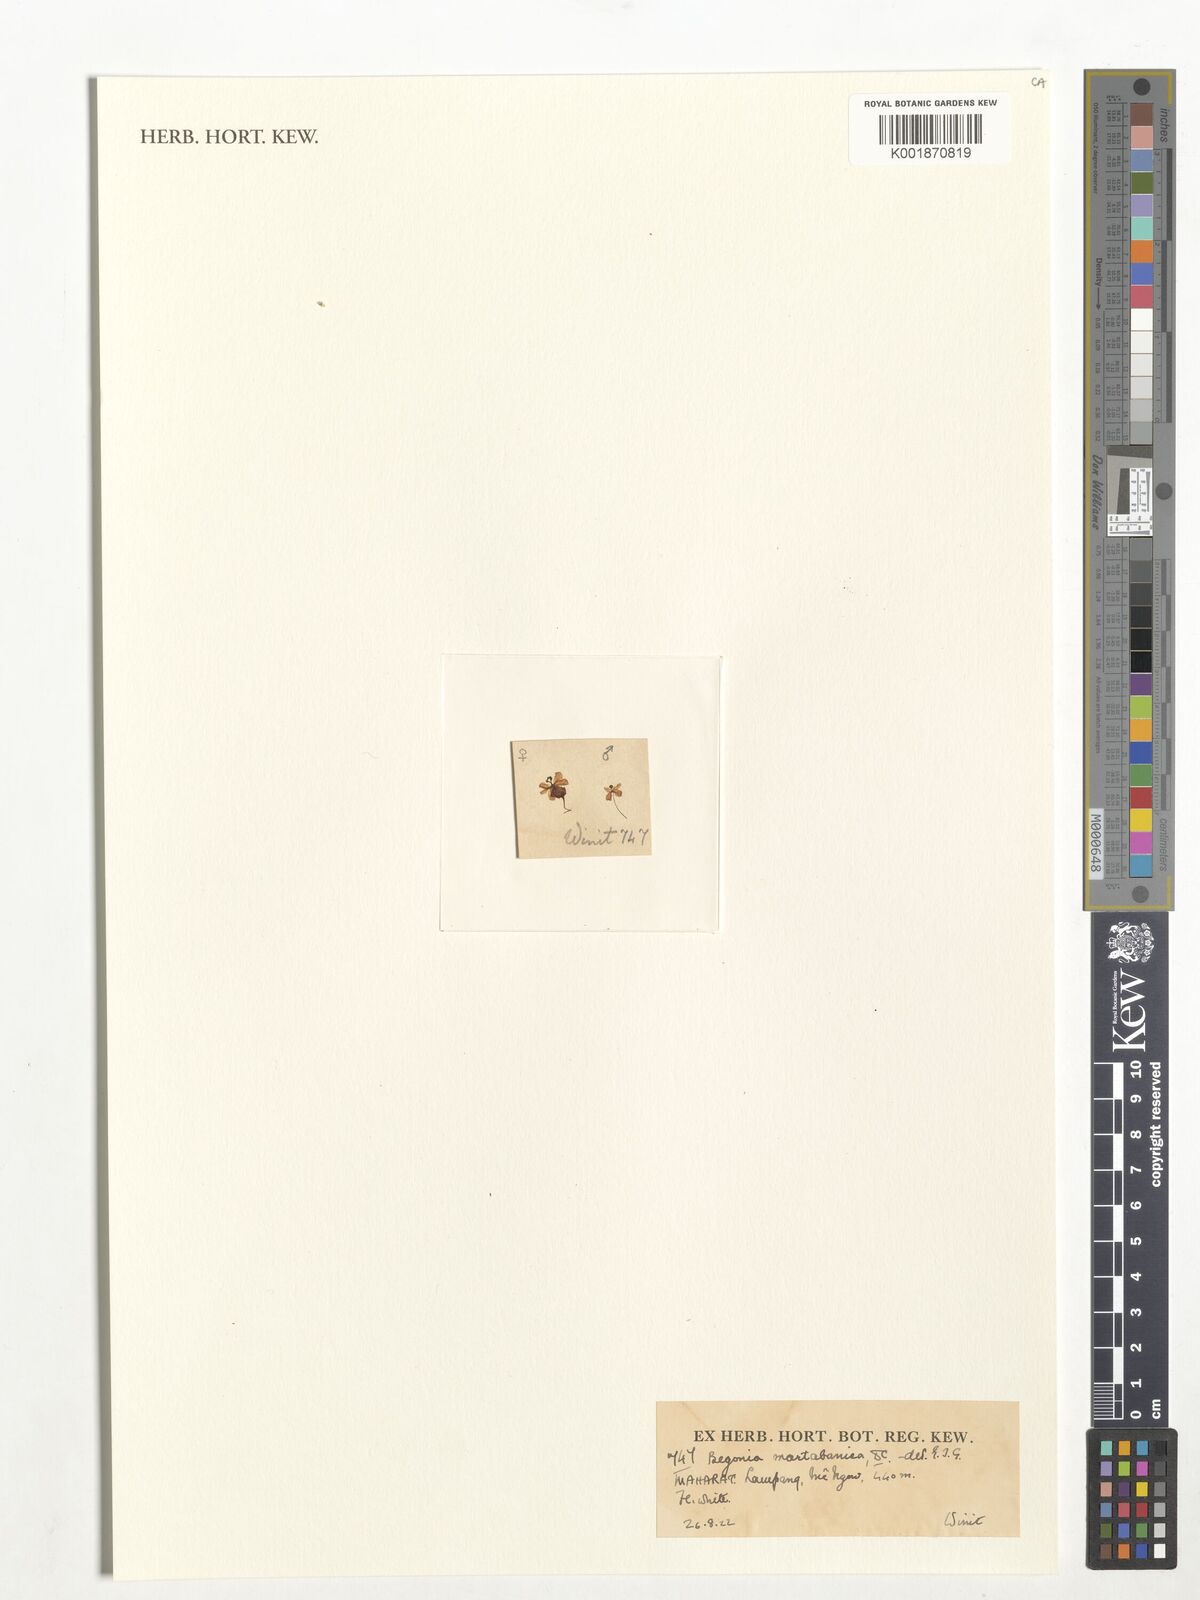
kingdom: Plantae
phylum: Tracheophyta
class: Magnoliopsida
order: Cucurbitales
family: Begoniaceae
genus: Begonia
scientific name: Begonia martabanica
